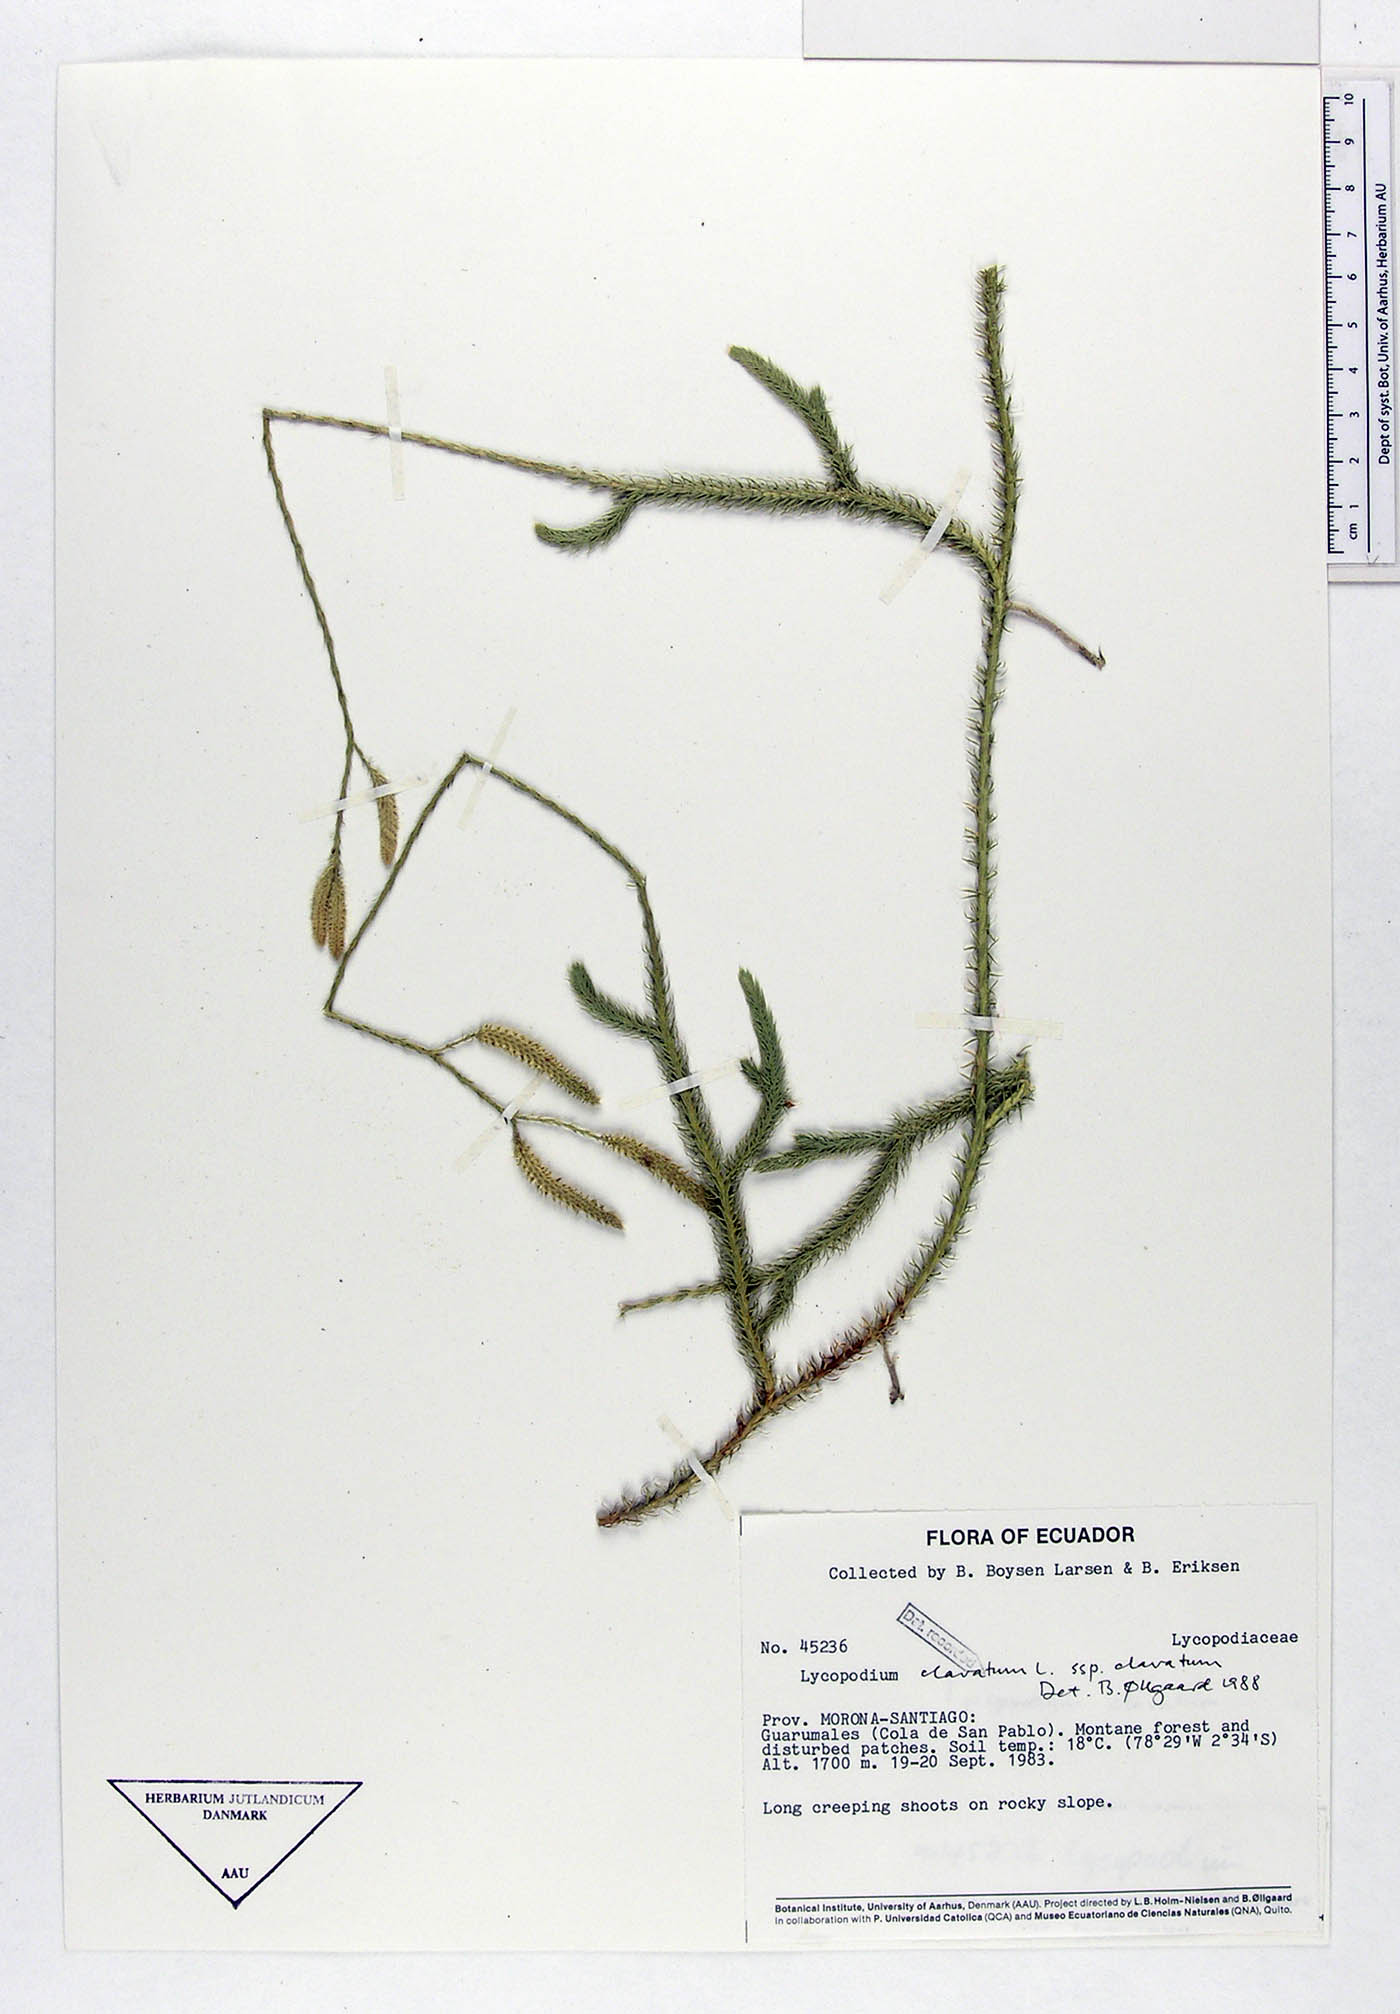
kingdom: Plantae
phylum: Tracheophyta
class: Lycopodiopsida
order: Lycopodiales
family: Lycopodiaceae
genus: Lycopodium
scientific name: Lycopodium clavatum
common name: Stag's-horn clubmoss
